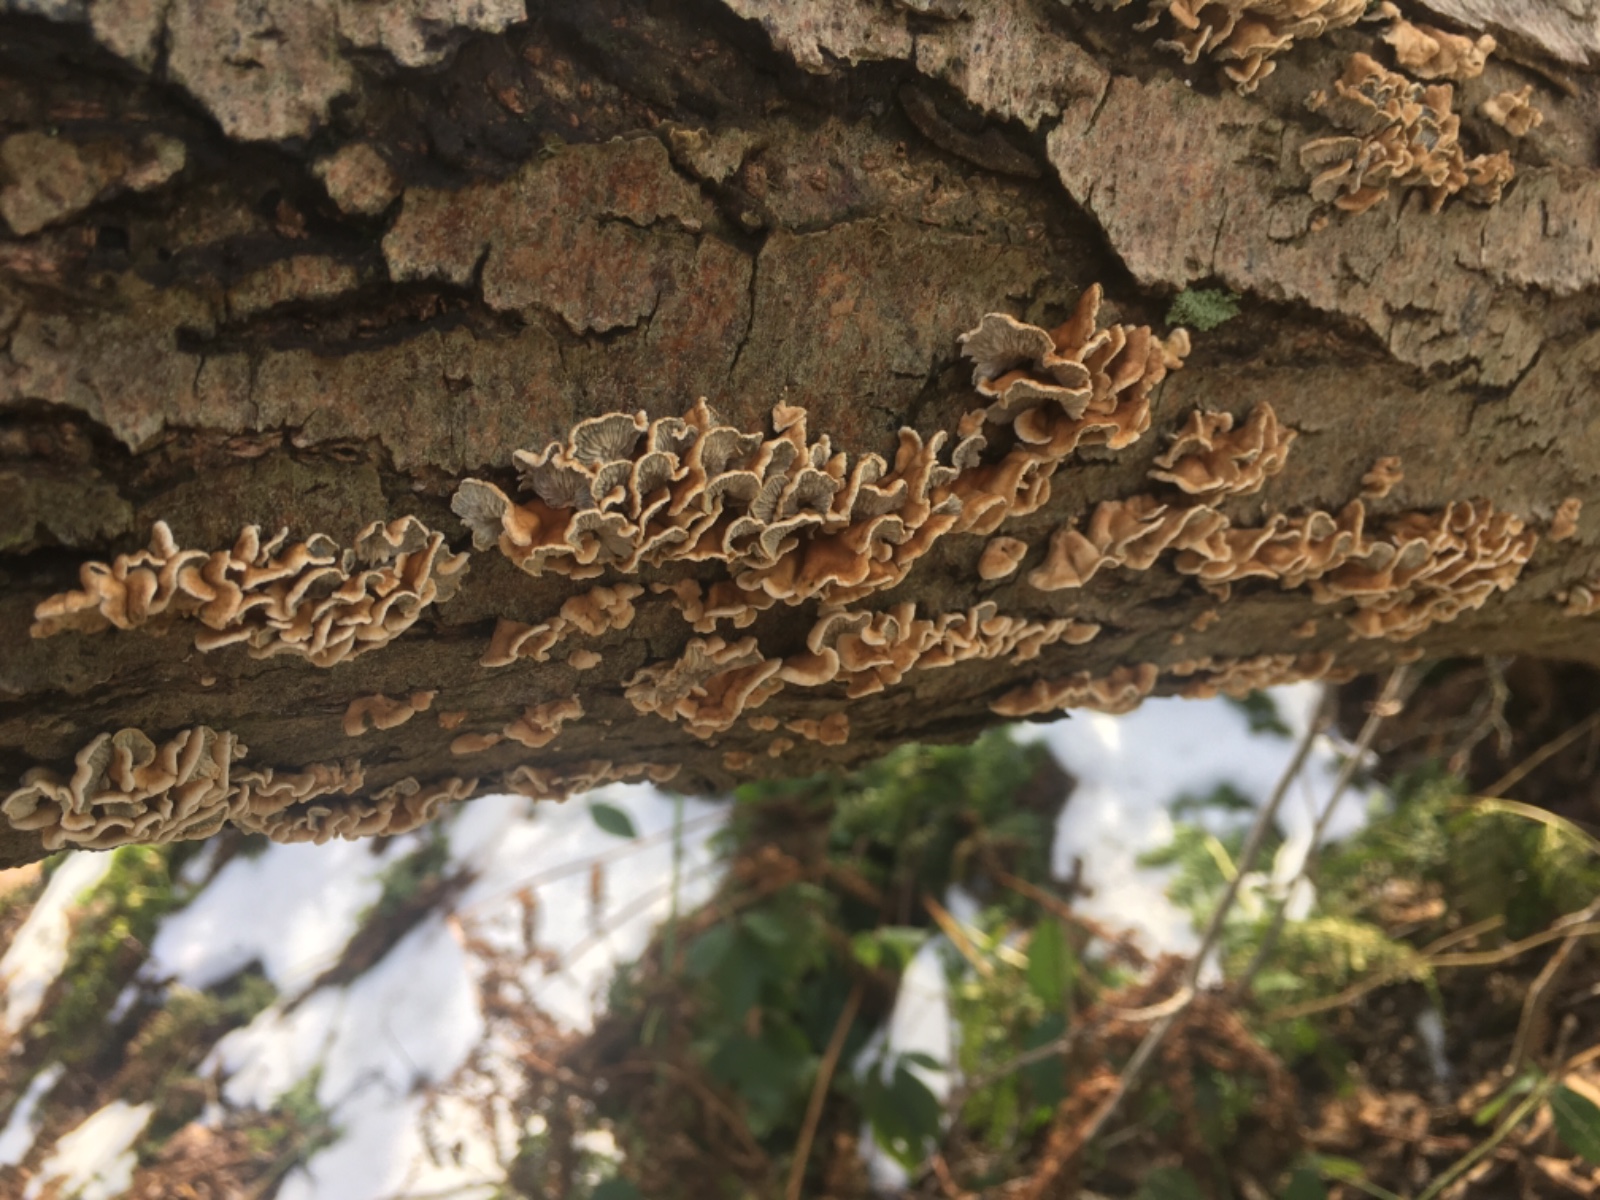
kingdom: Fungi
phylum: Basidiomycota
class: Agaricomycetes
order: Amylocorticiales
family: Amylocorticiaceae
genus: Plicaturopsis
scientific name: Plicaturopsis crispa
